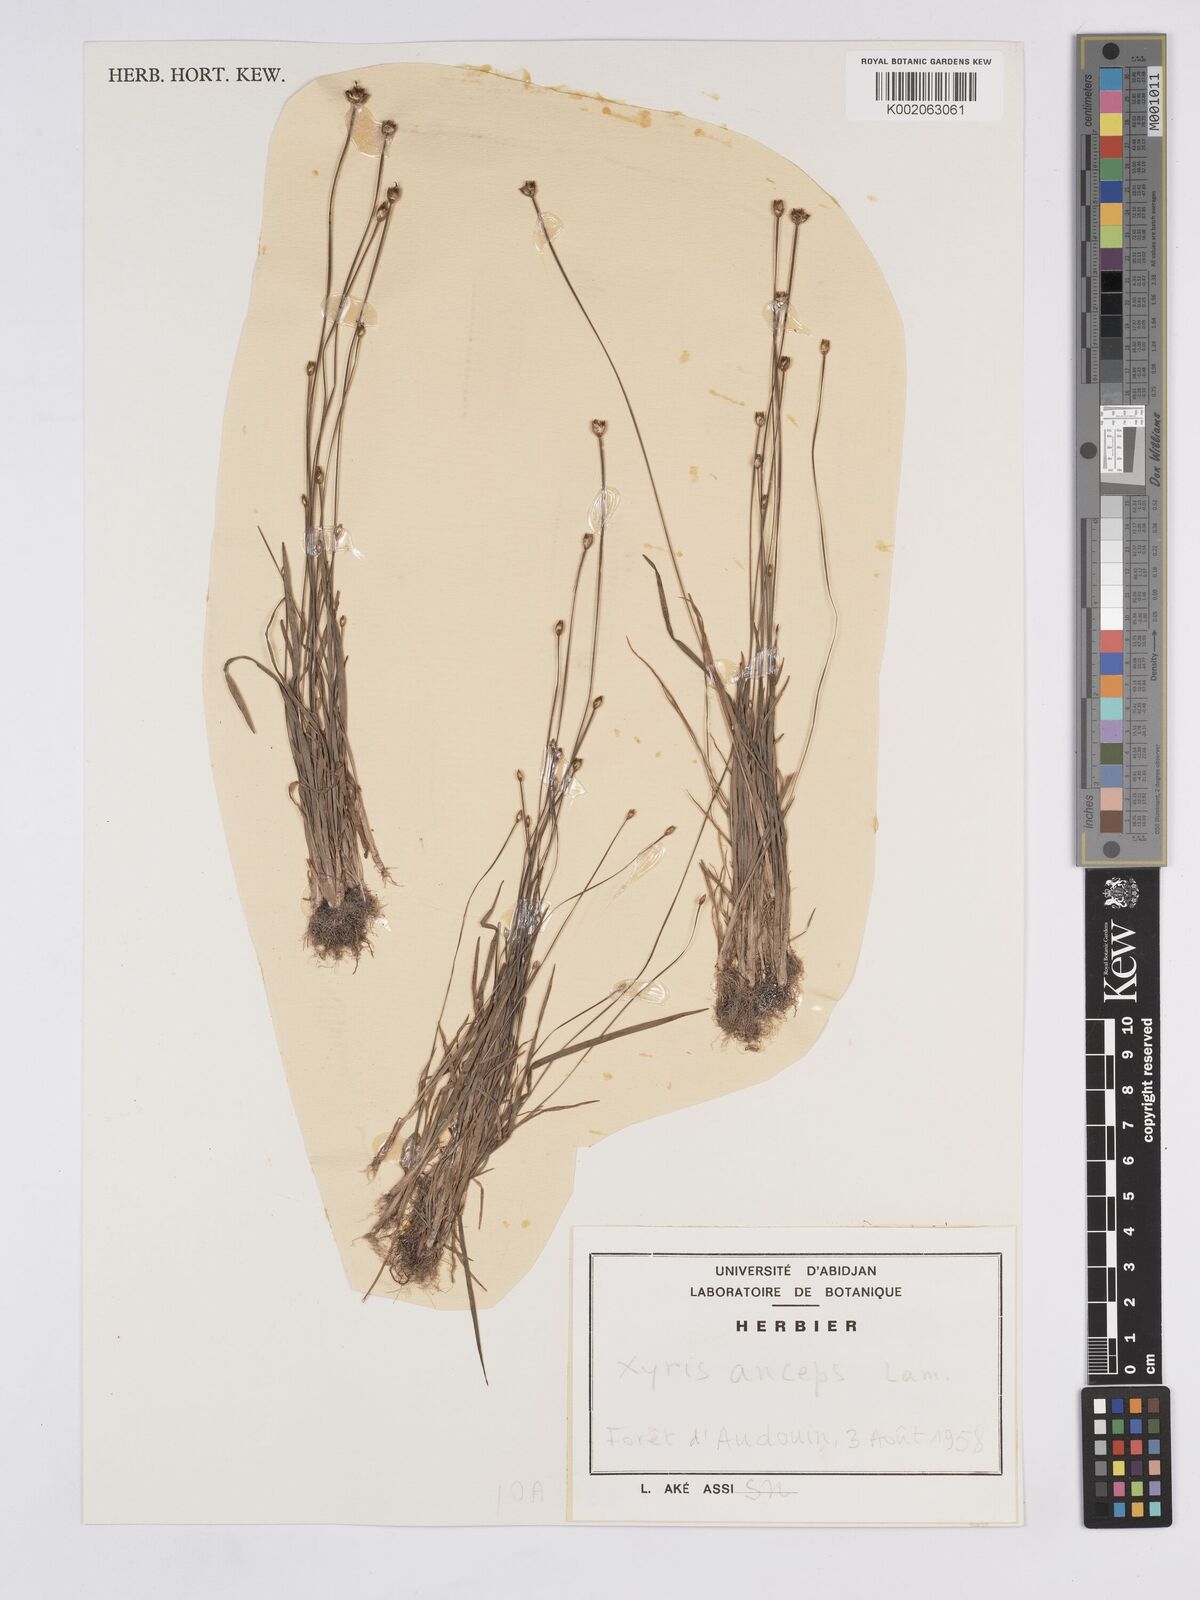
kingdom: Plantae
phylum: Tracheophyta
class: Liliopsida
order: Poales
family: Xyridaceae
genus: Xyris
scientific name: Xyris anceps
